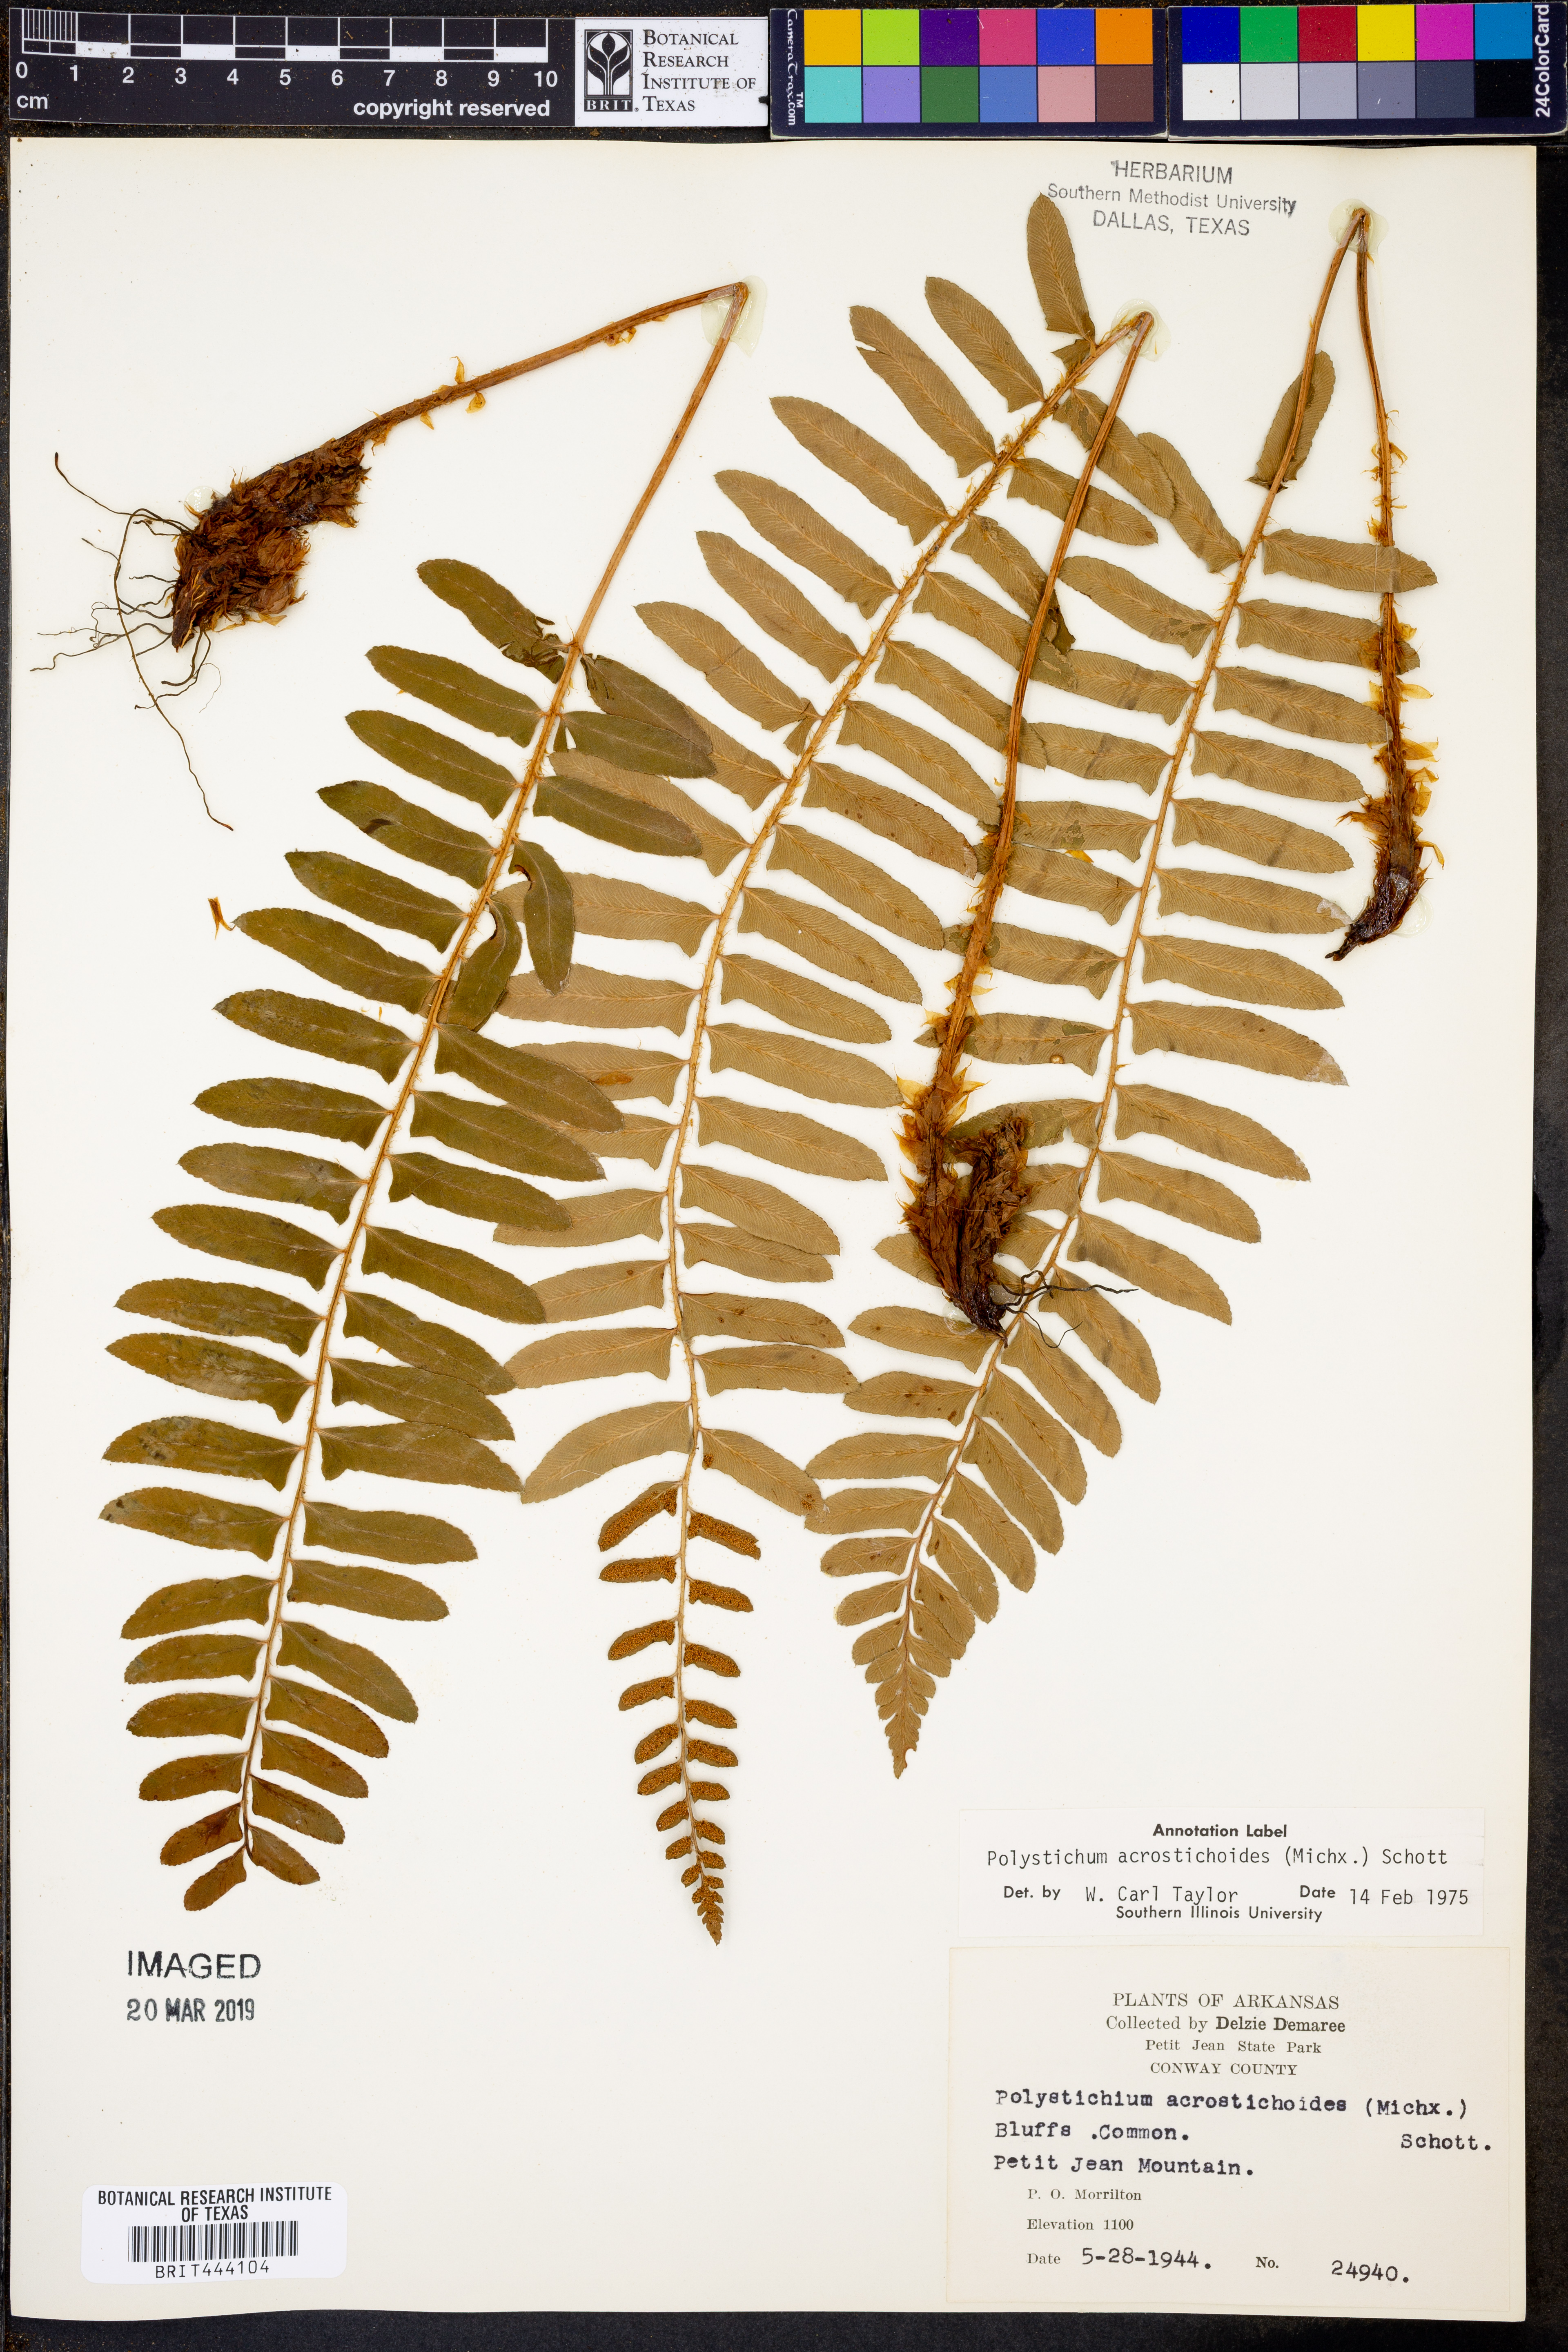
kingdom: Plantae
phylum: Tracheophyta
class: Polypodiopsida
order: Polypodiales
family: Dryopteridaceae
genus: Polystichum
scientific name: Polystichum acrostichoides
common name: Christmas fern
